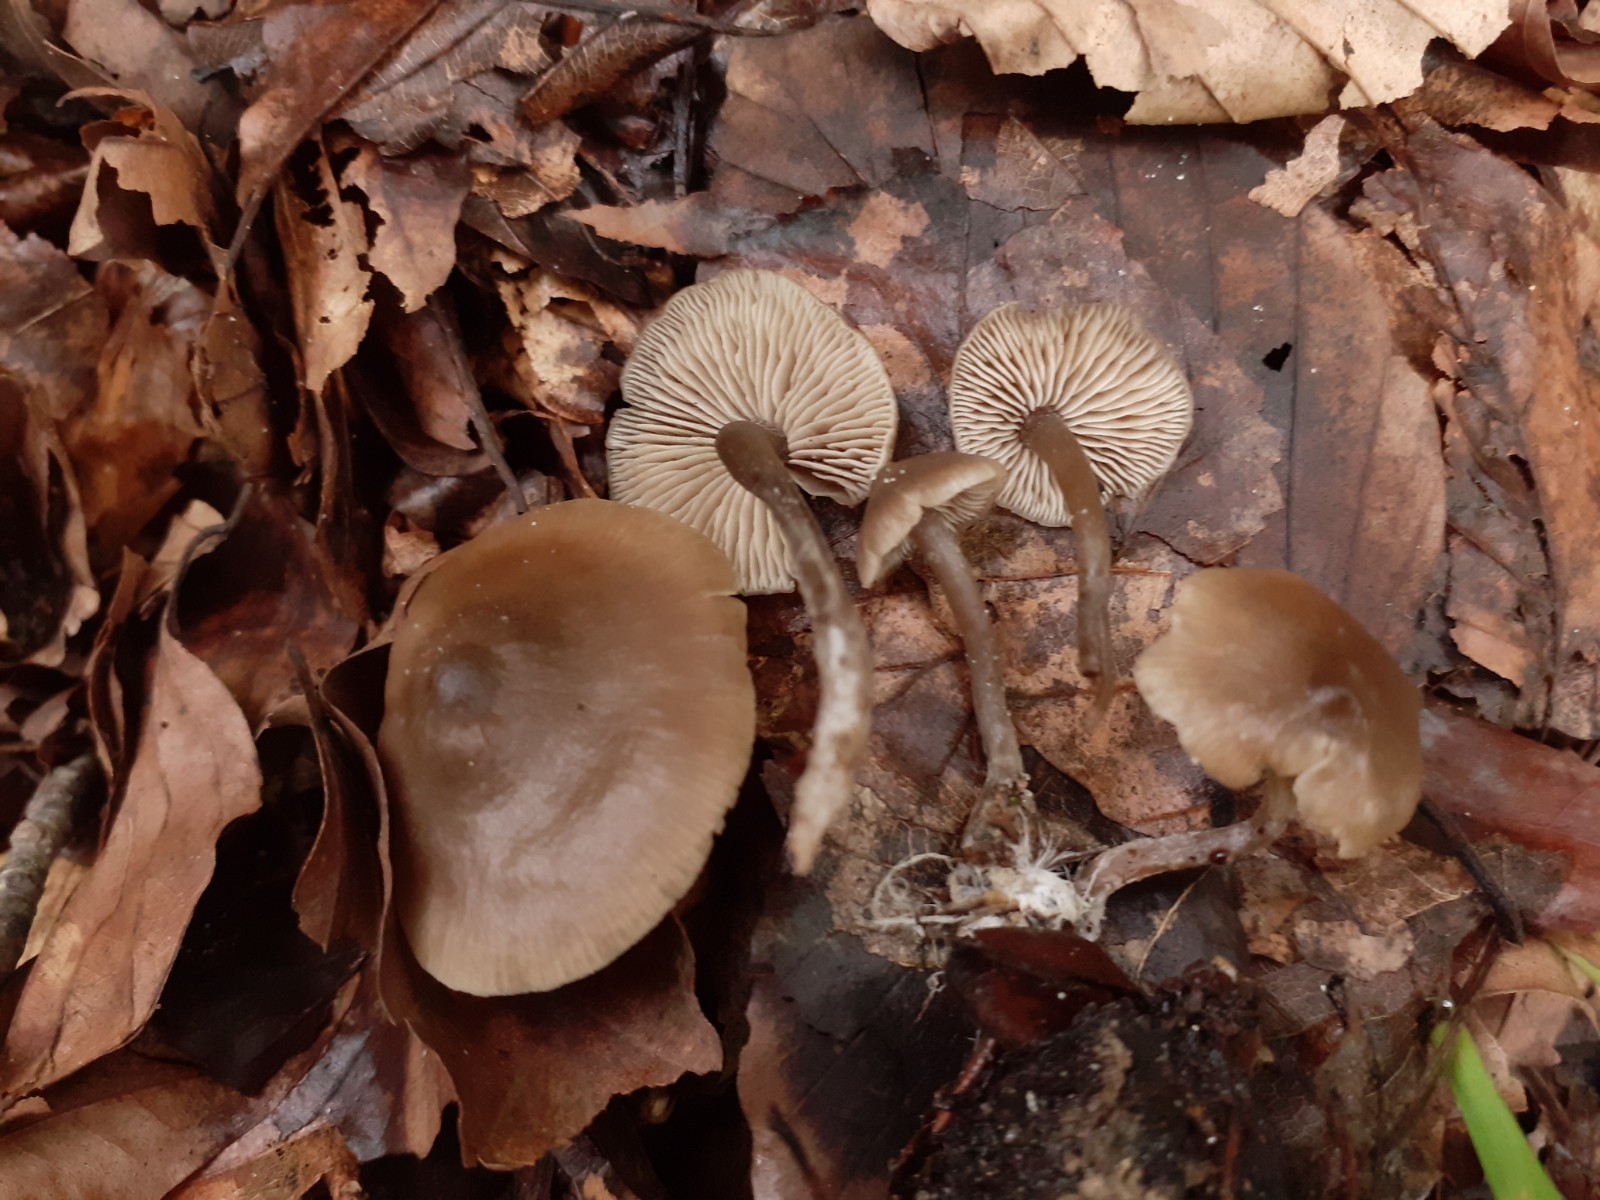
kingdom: Fungi
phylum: Basidiomycota
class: Agaricomycetes
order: Agaricales
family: Lyophyllaceae
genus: Myochromella
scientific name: Myochromella boudieri
